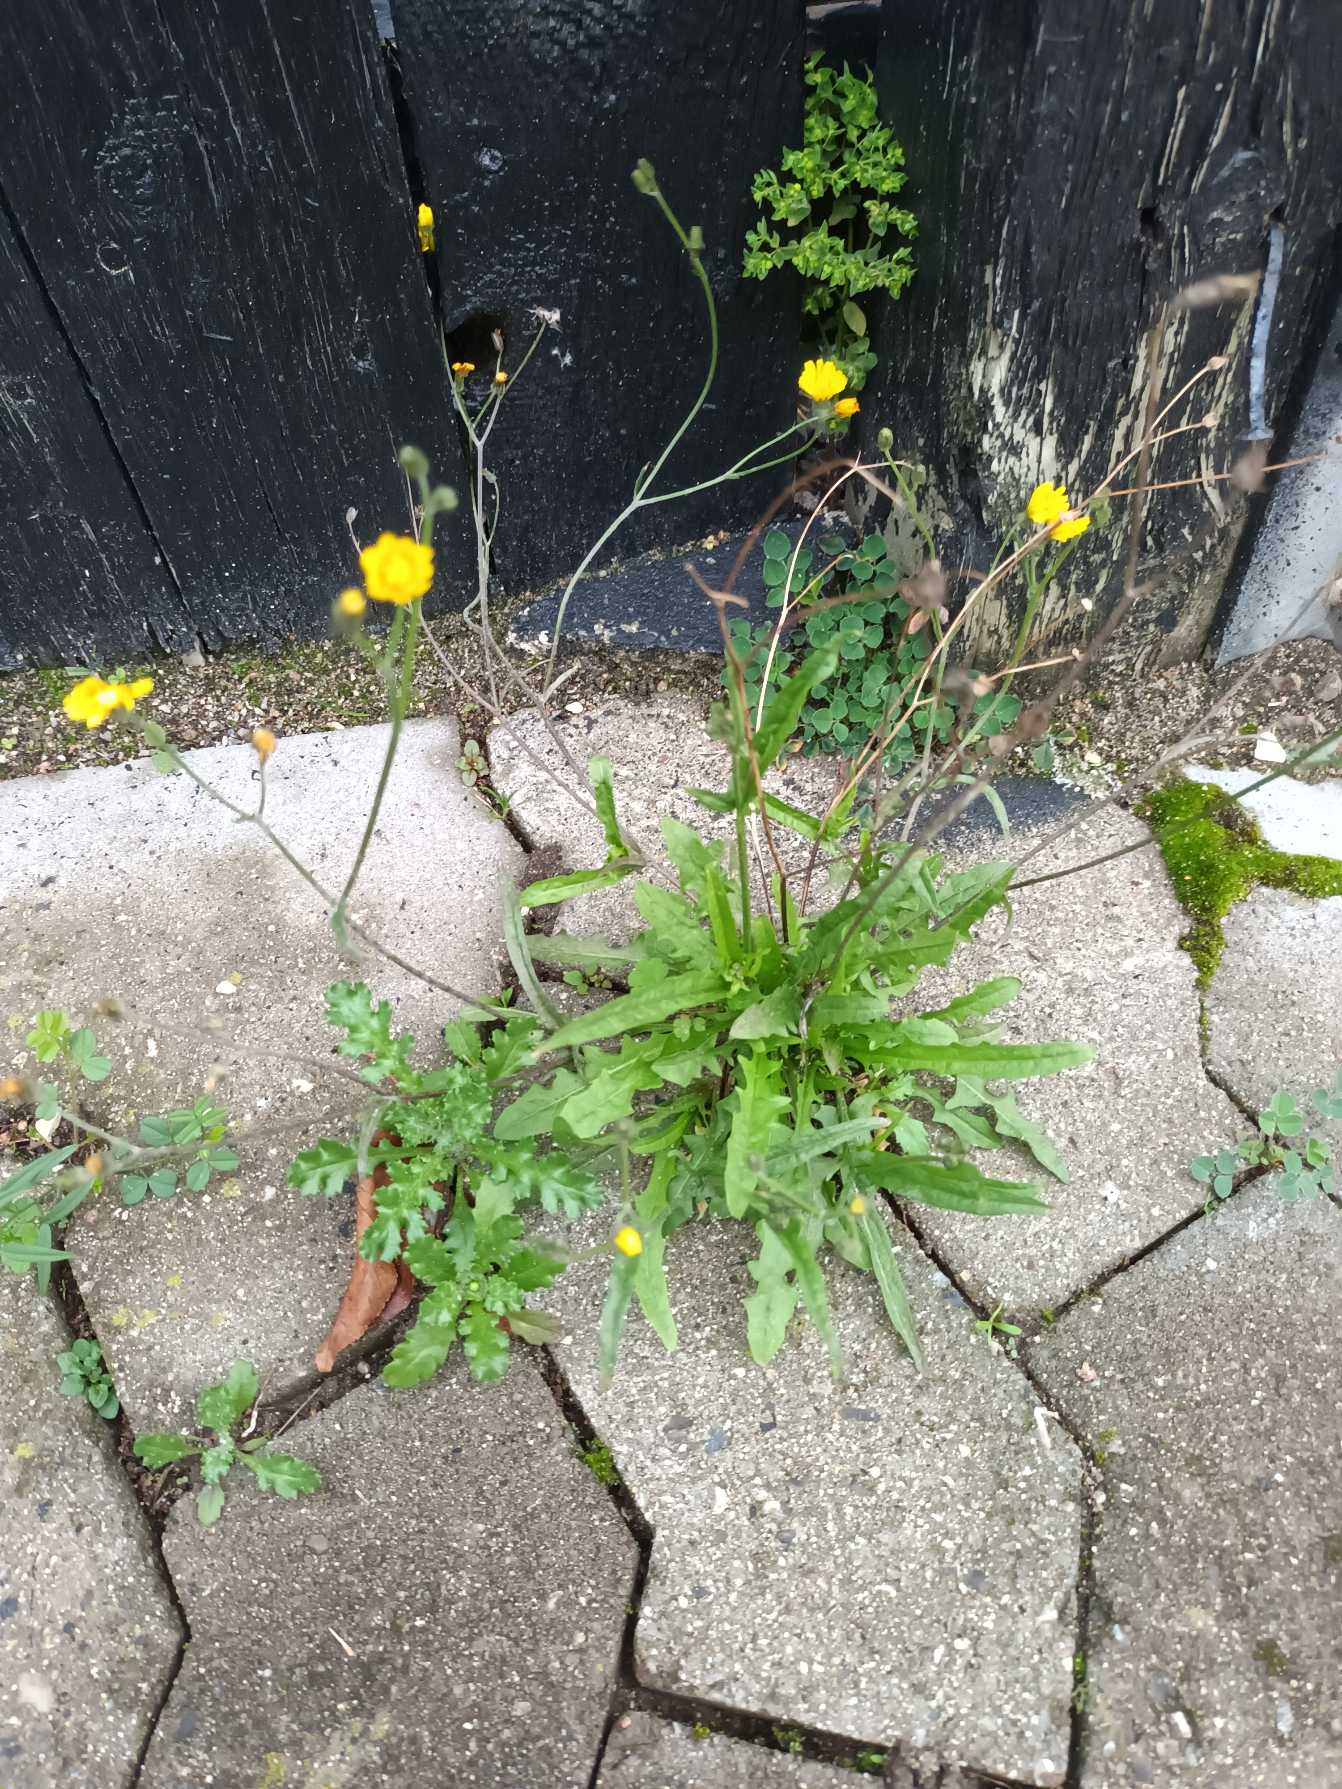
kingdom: Plantae
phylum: Tracheophyta
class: Magnoliopsida
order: Asterales
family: Asteraceae
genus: Crepis
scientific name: Crepis capillaris
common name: Grøn høgeskæg
